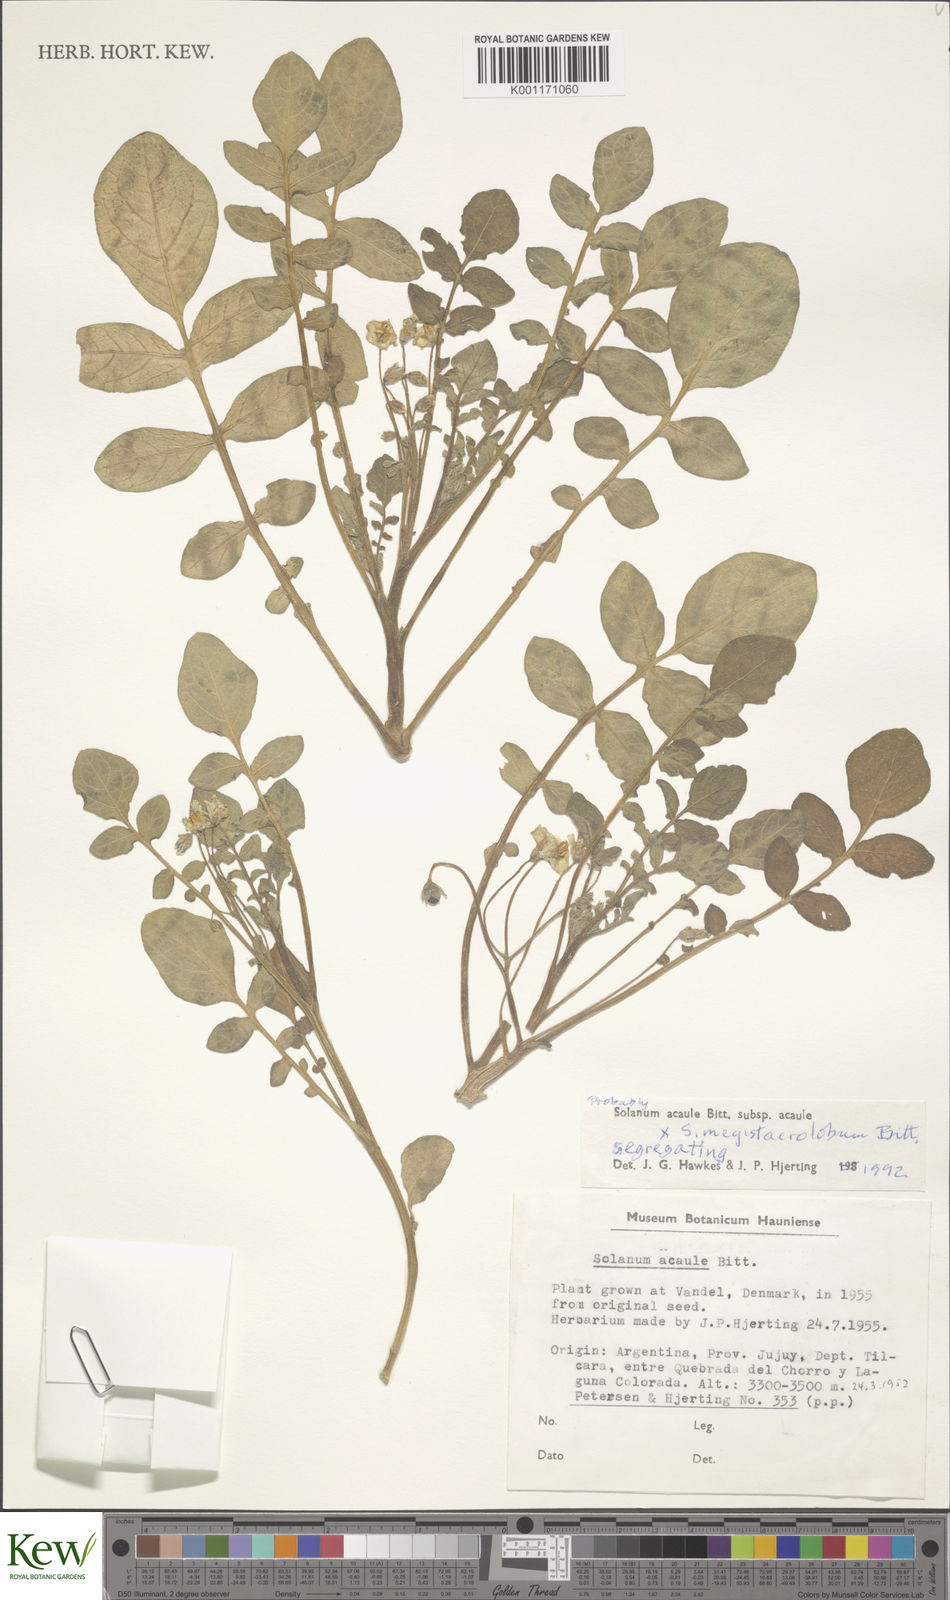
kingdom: Plantae
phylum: Tracheophyta
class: Magnoliopsida
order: Solanales
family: Solanaceae
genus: Solanum
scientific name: Solanum aemulans
